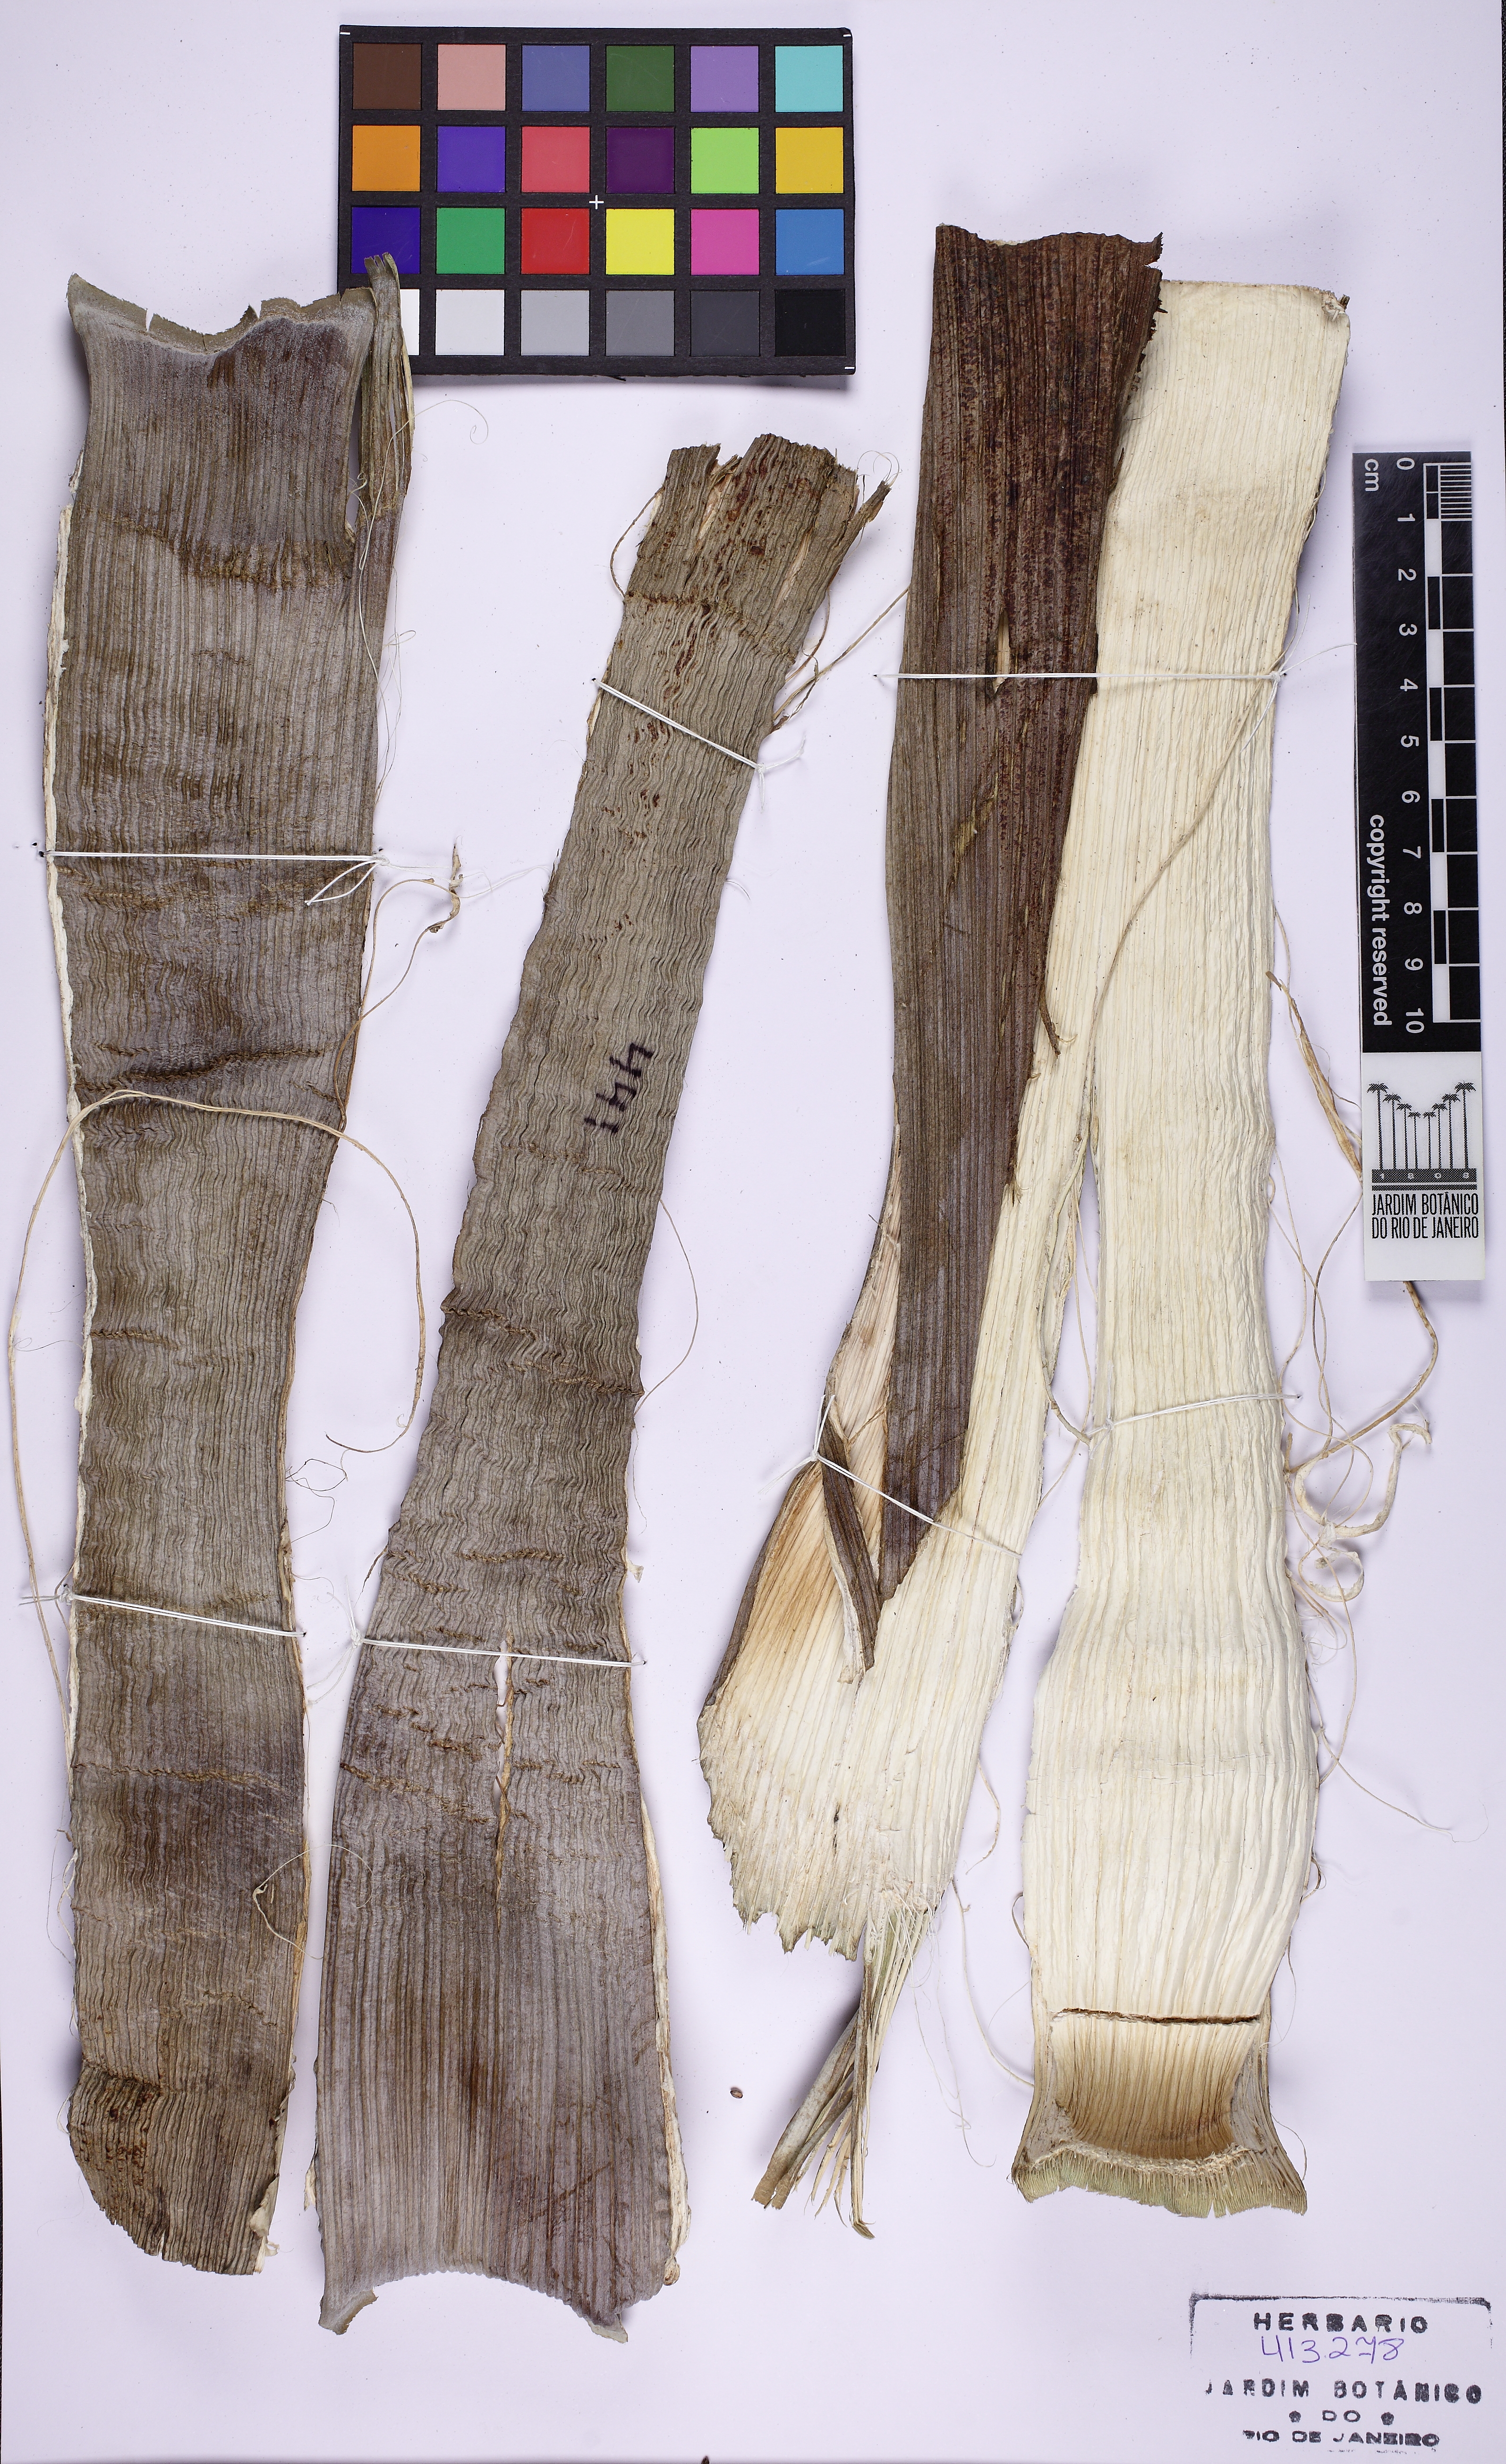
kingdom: Plantae
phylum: Tracheophyta
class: Liliopsida
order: Arecales
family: Arecaceae
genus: Hyophorbe
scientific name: Hyophorbe lagenicaulis
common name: Bottle palm
